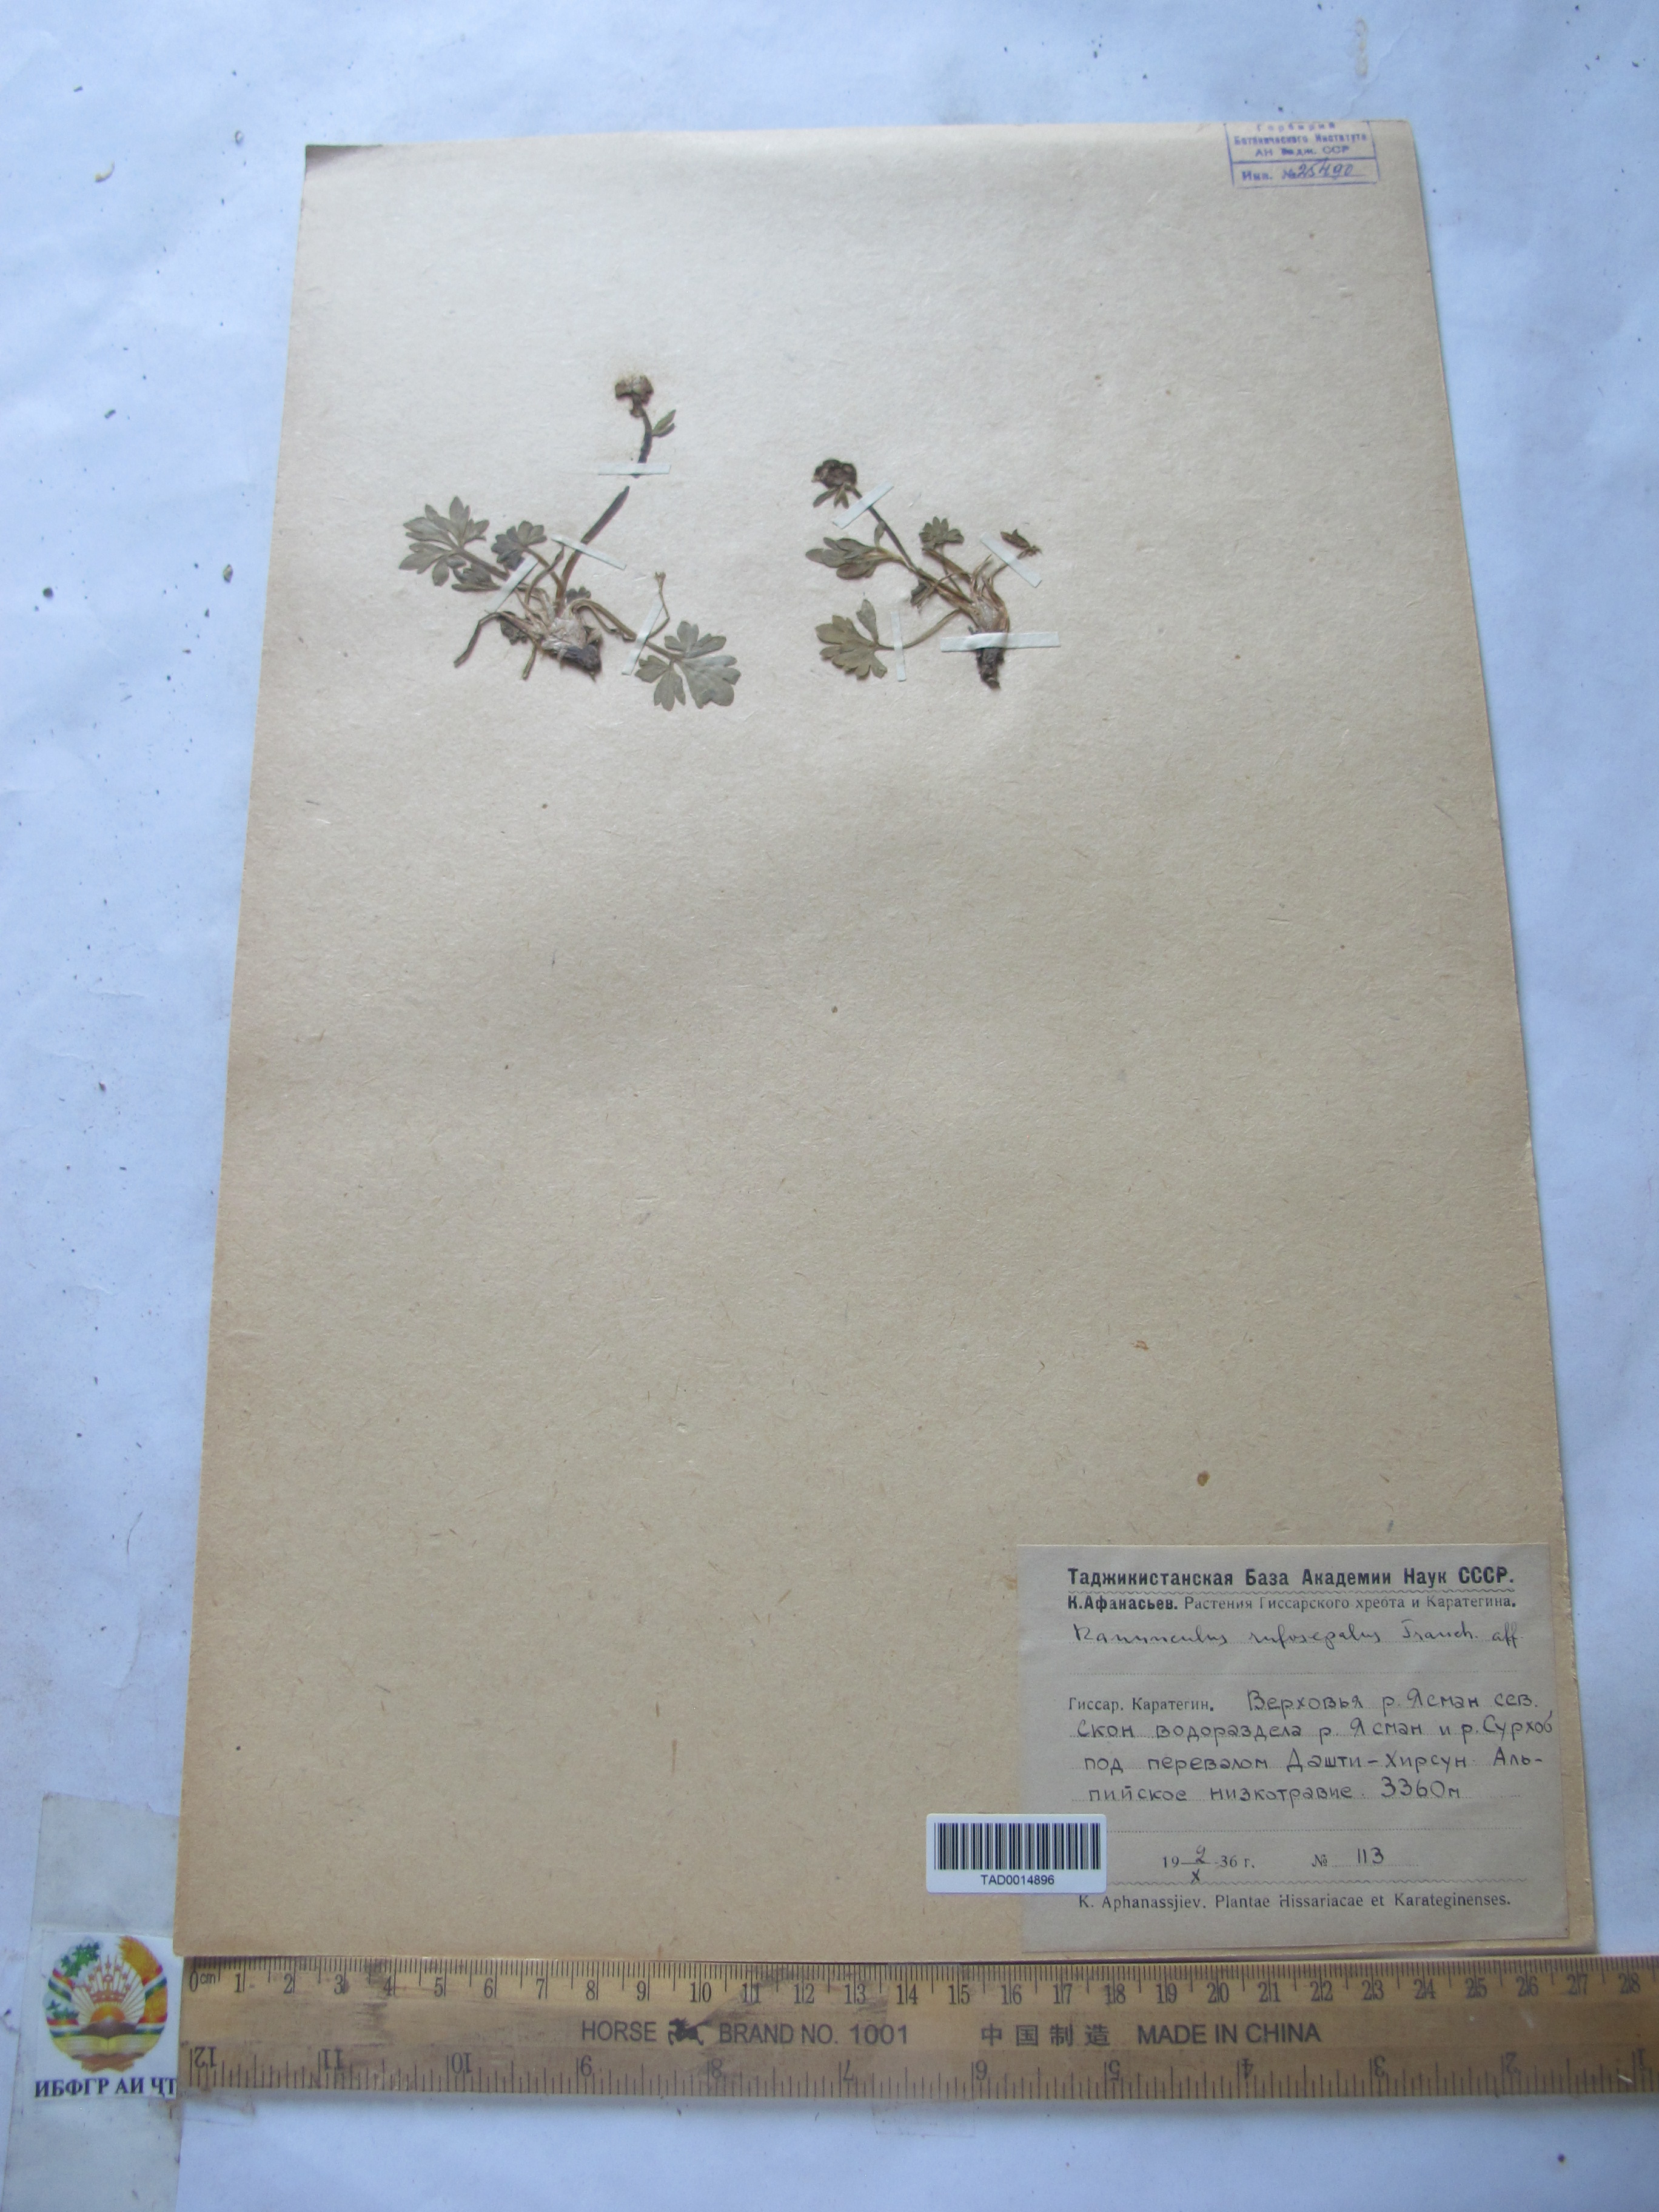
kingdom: Plantae
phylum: Tracheophyta
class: Magnoliopsida
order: Ranunculales
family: Ranunculaceae
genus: Ranunculus
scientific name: Ranunculus rufosepalus
